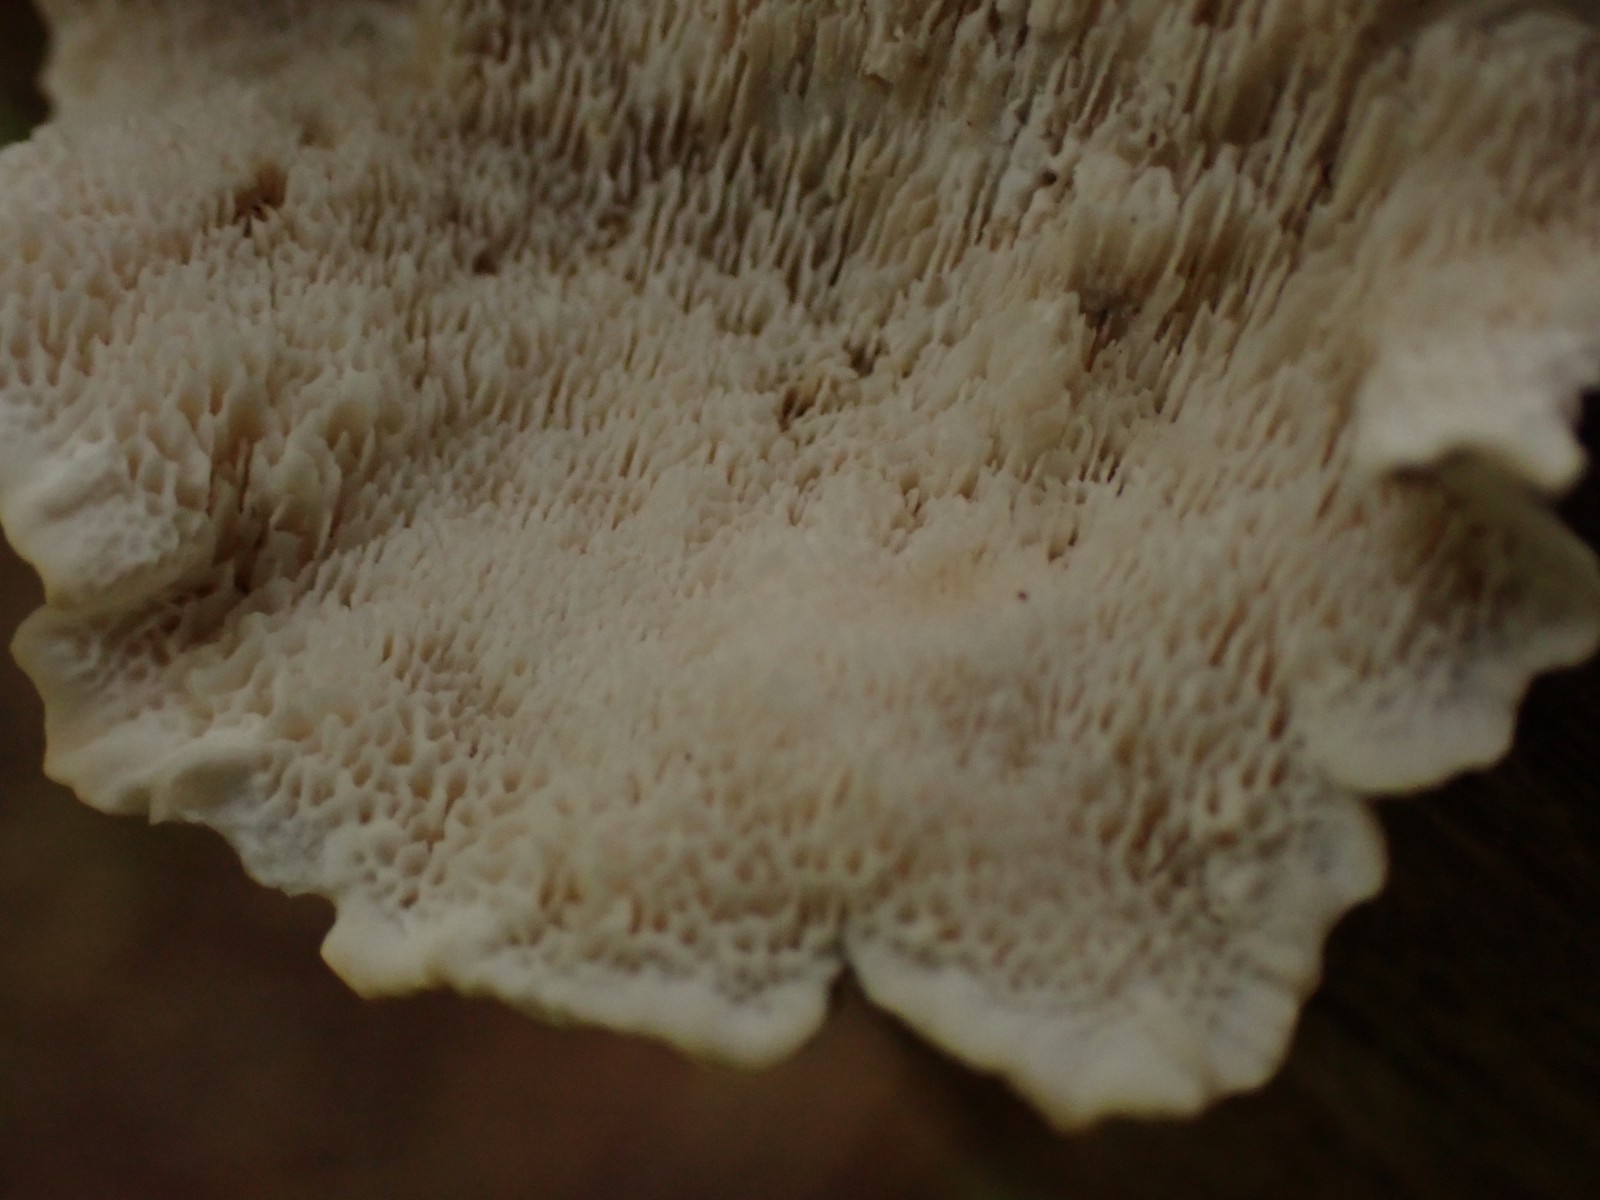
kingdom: Fungi
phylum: Basidiomycota
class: Agaricomycetes
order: Polyporales
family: Polyporaceae
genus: Trametes
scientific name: Trametes versicolor
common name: broget læderporesvamp
